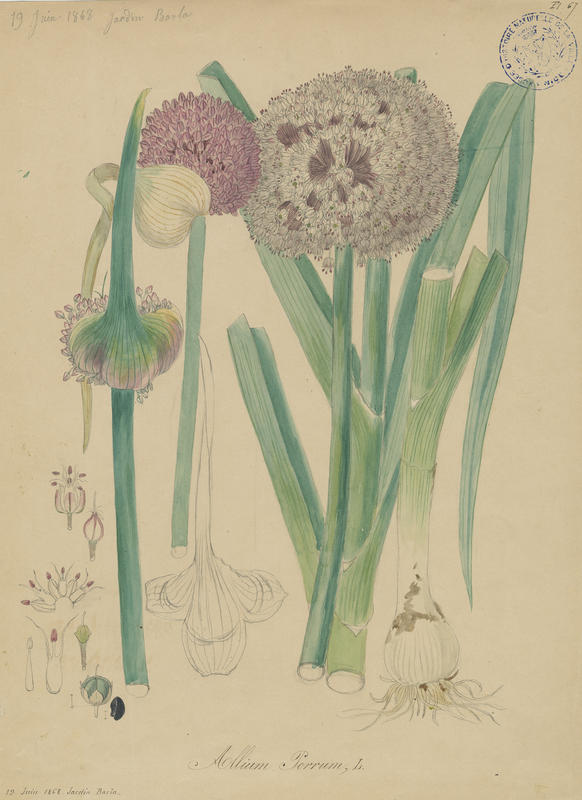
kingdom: Plantae
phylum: Tracheophyta
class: Liliopsida
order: Asparagales
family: Amaryllidaceae
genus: Allium
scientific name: Allium ampeloprasum
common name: Wild leek
